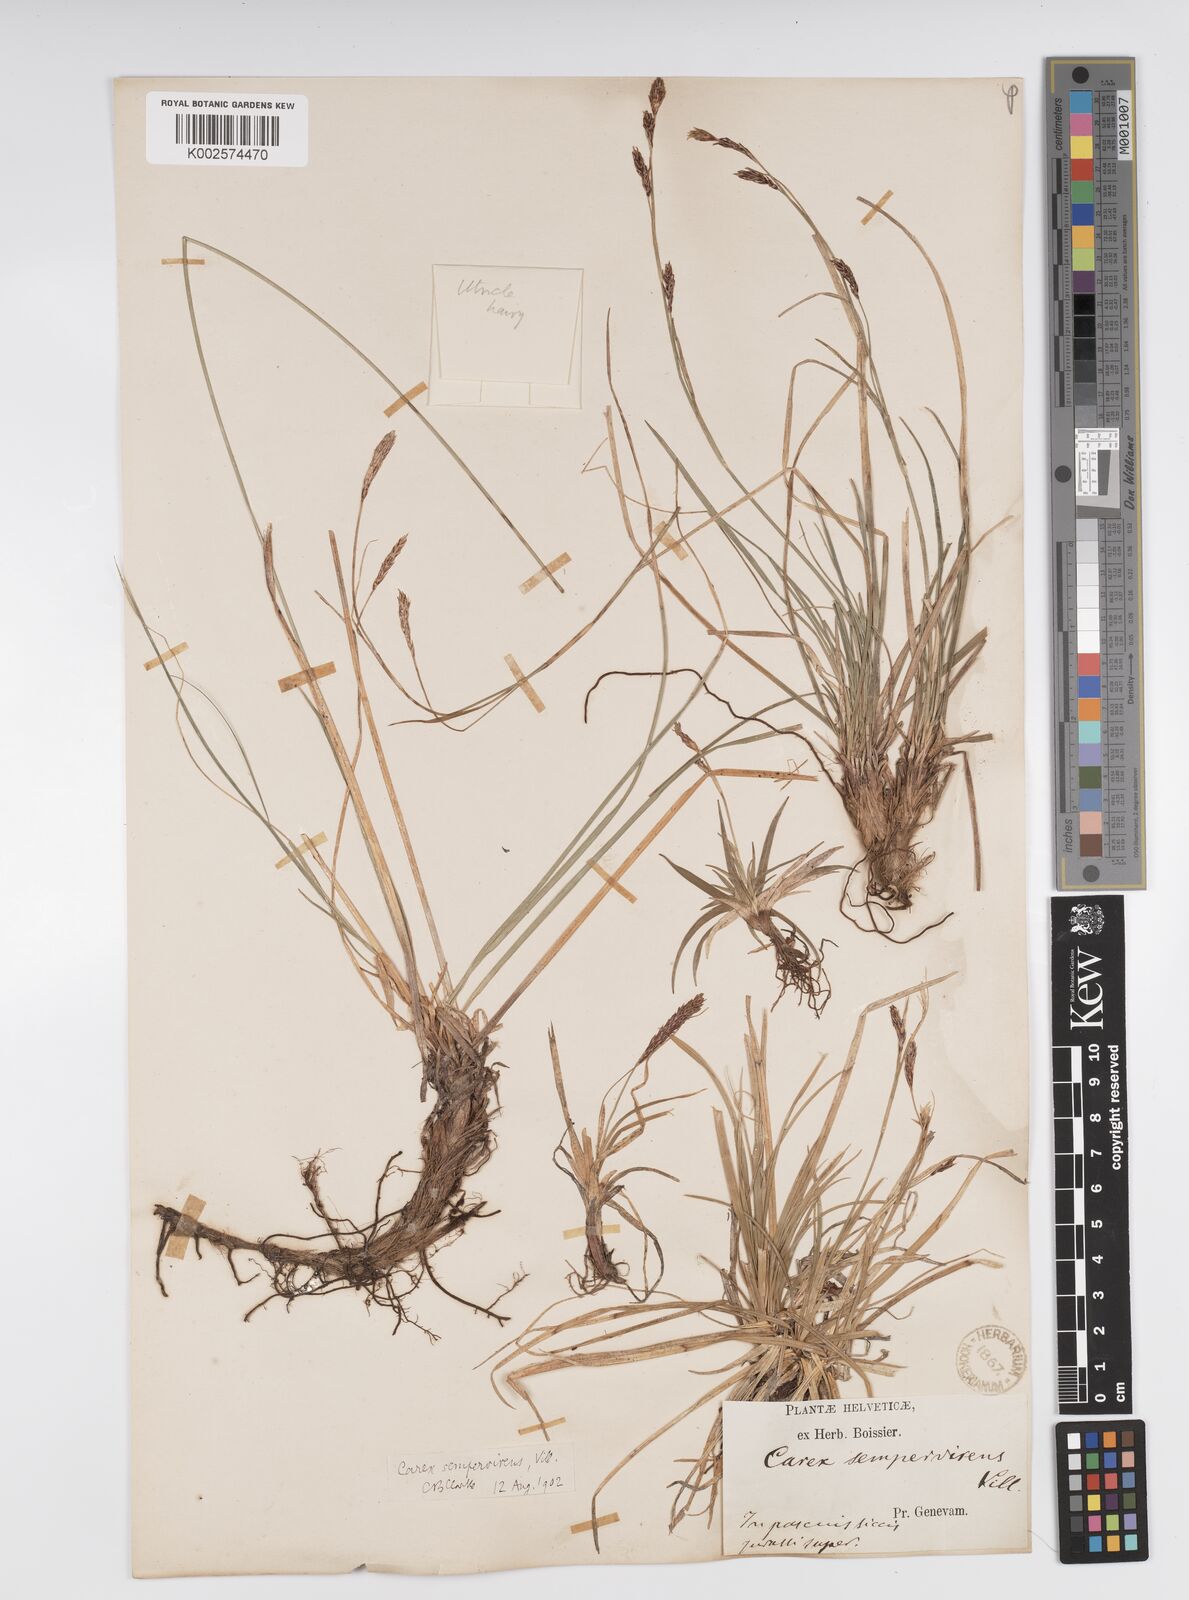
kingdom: Plantae
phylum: Tracheophyta
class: Liliopsida
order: Poales
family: Cyperaceae
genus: Carex
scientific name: Carex sempervirens
